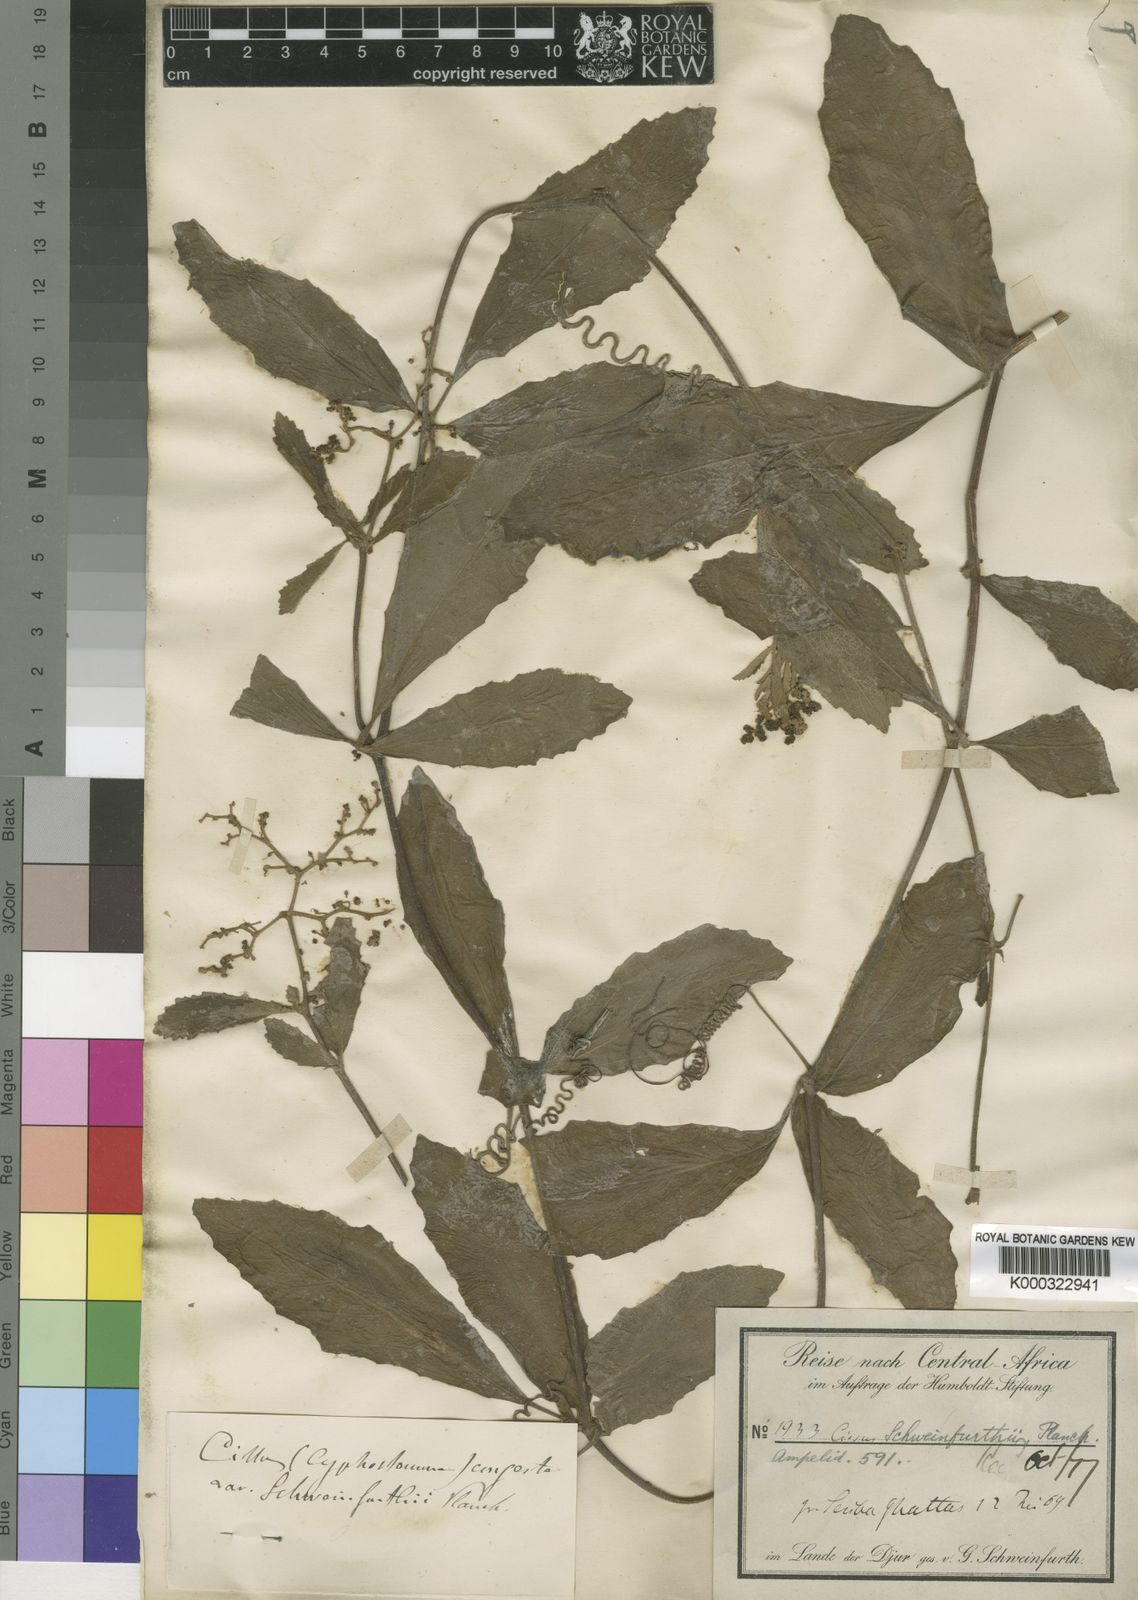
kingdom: Plantae
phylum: Tracheophyta
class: Magnoliopsida
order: Vitales
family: Vitaceae
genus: Cyphostemma
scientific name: Cyphostemma serpens
